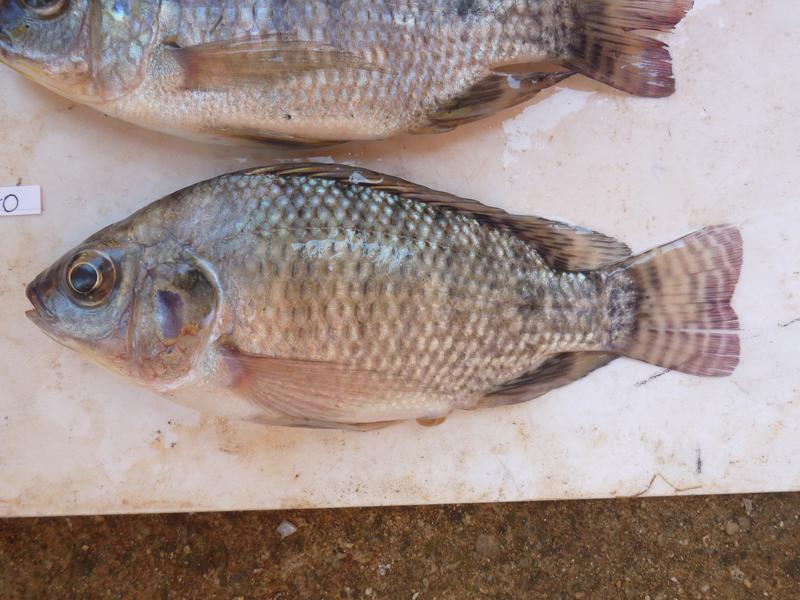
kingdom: Animalia
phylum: Chordata
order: Perciformes
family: Cichlidae
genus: Oreochromis
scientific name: Oreochromis niloticus
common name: Nile tilapia
